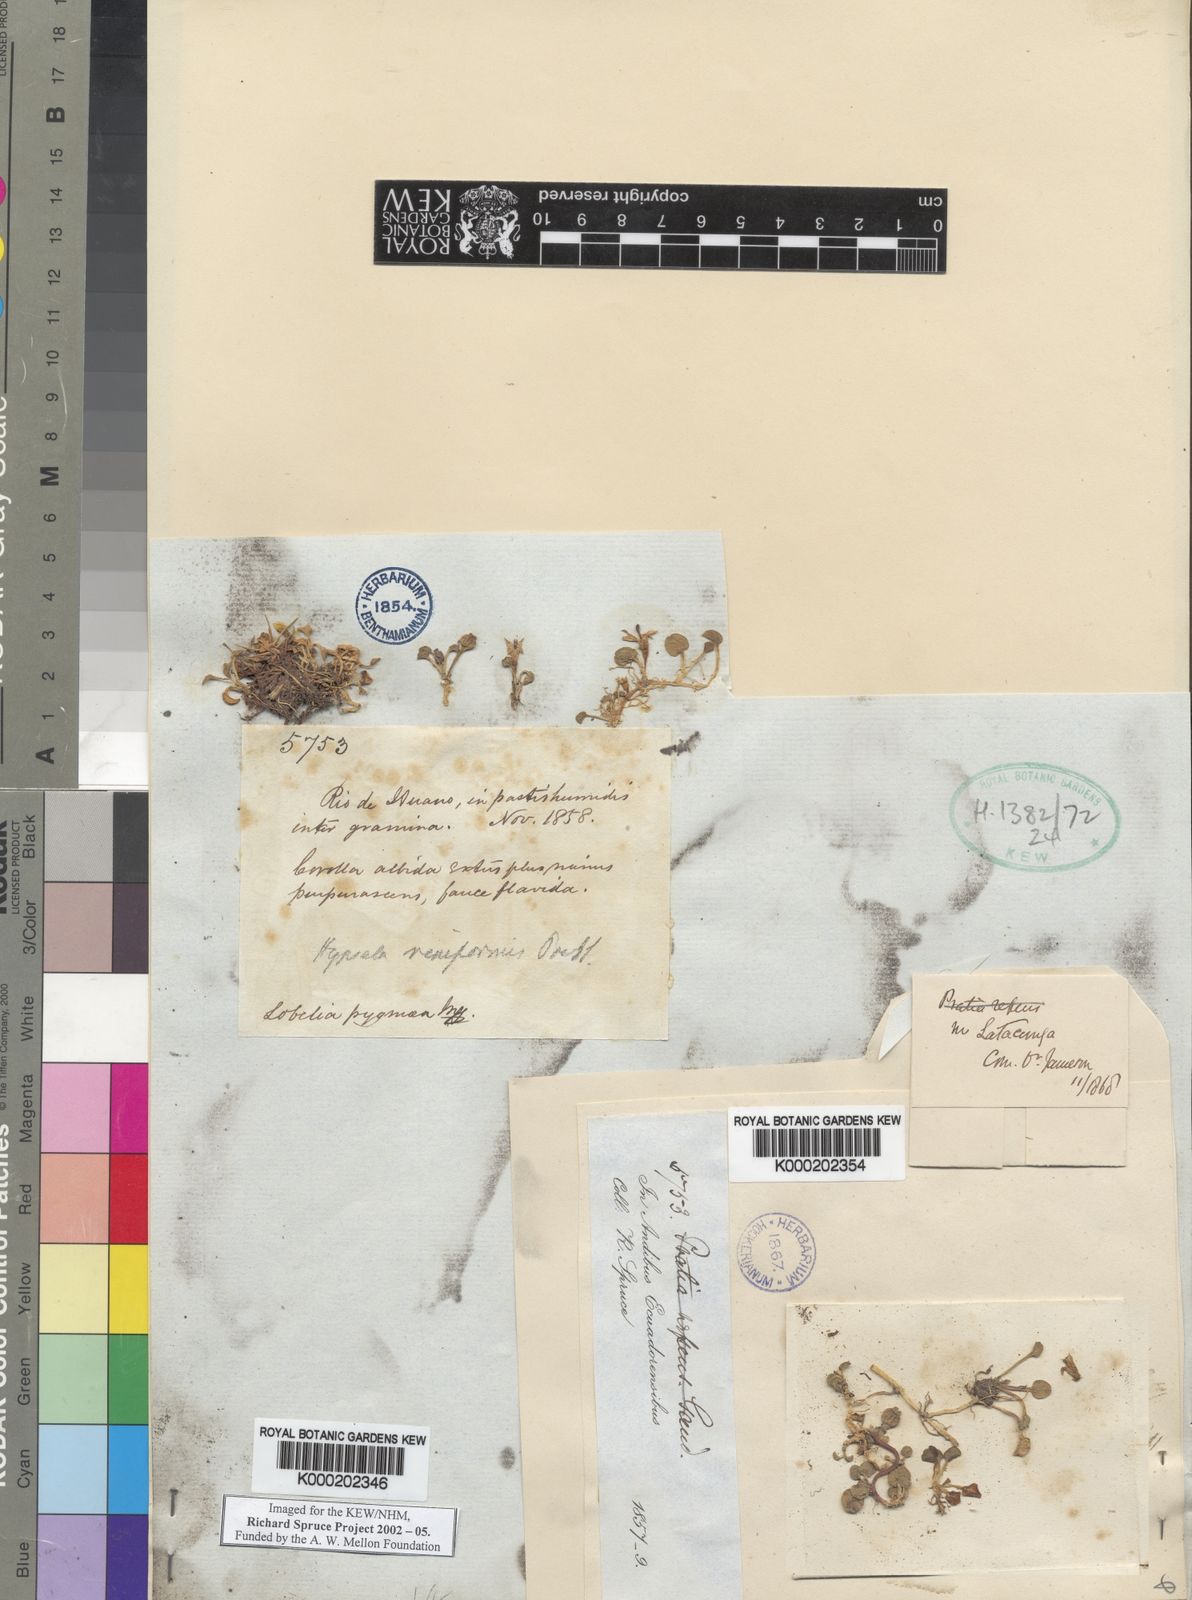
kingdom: Plantae
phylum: Tracheophyta
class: Magnoliopsida
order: Asterales
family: Campanulaceae
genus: Lobelia
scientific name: Lobelia oligophylla
